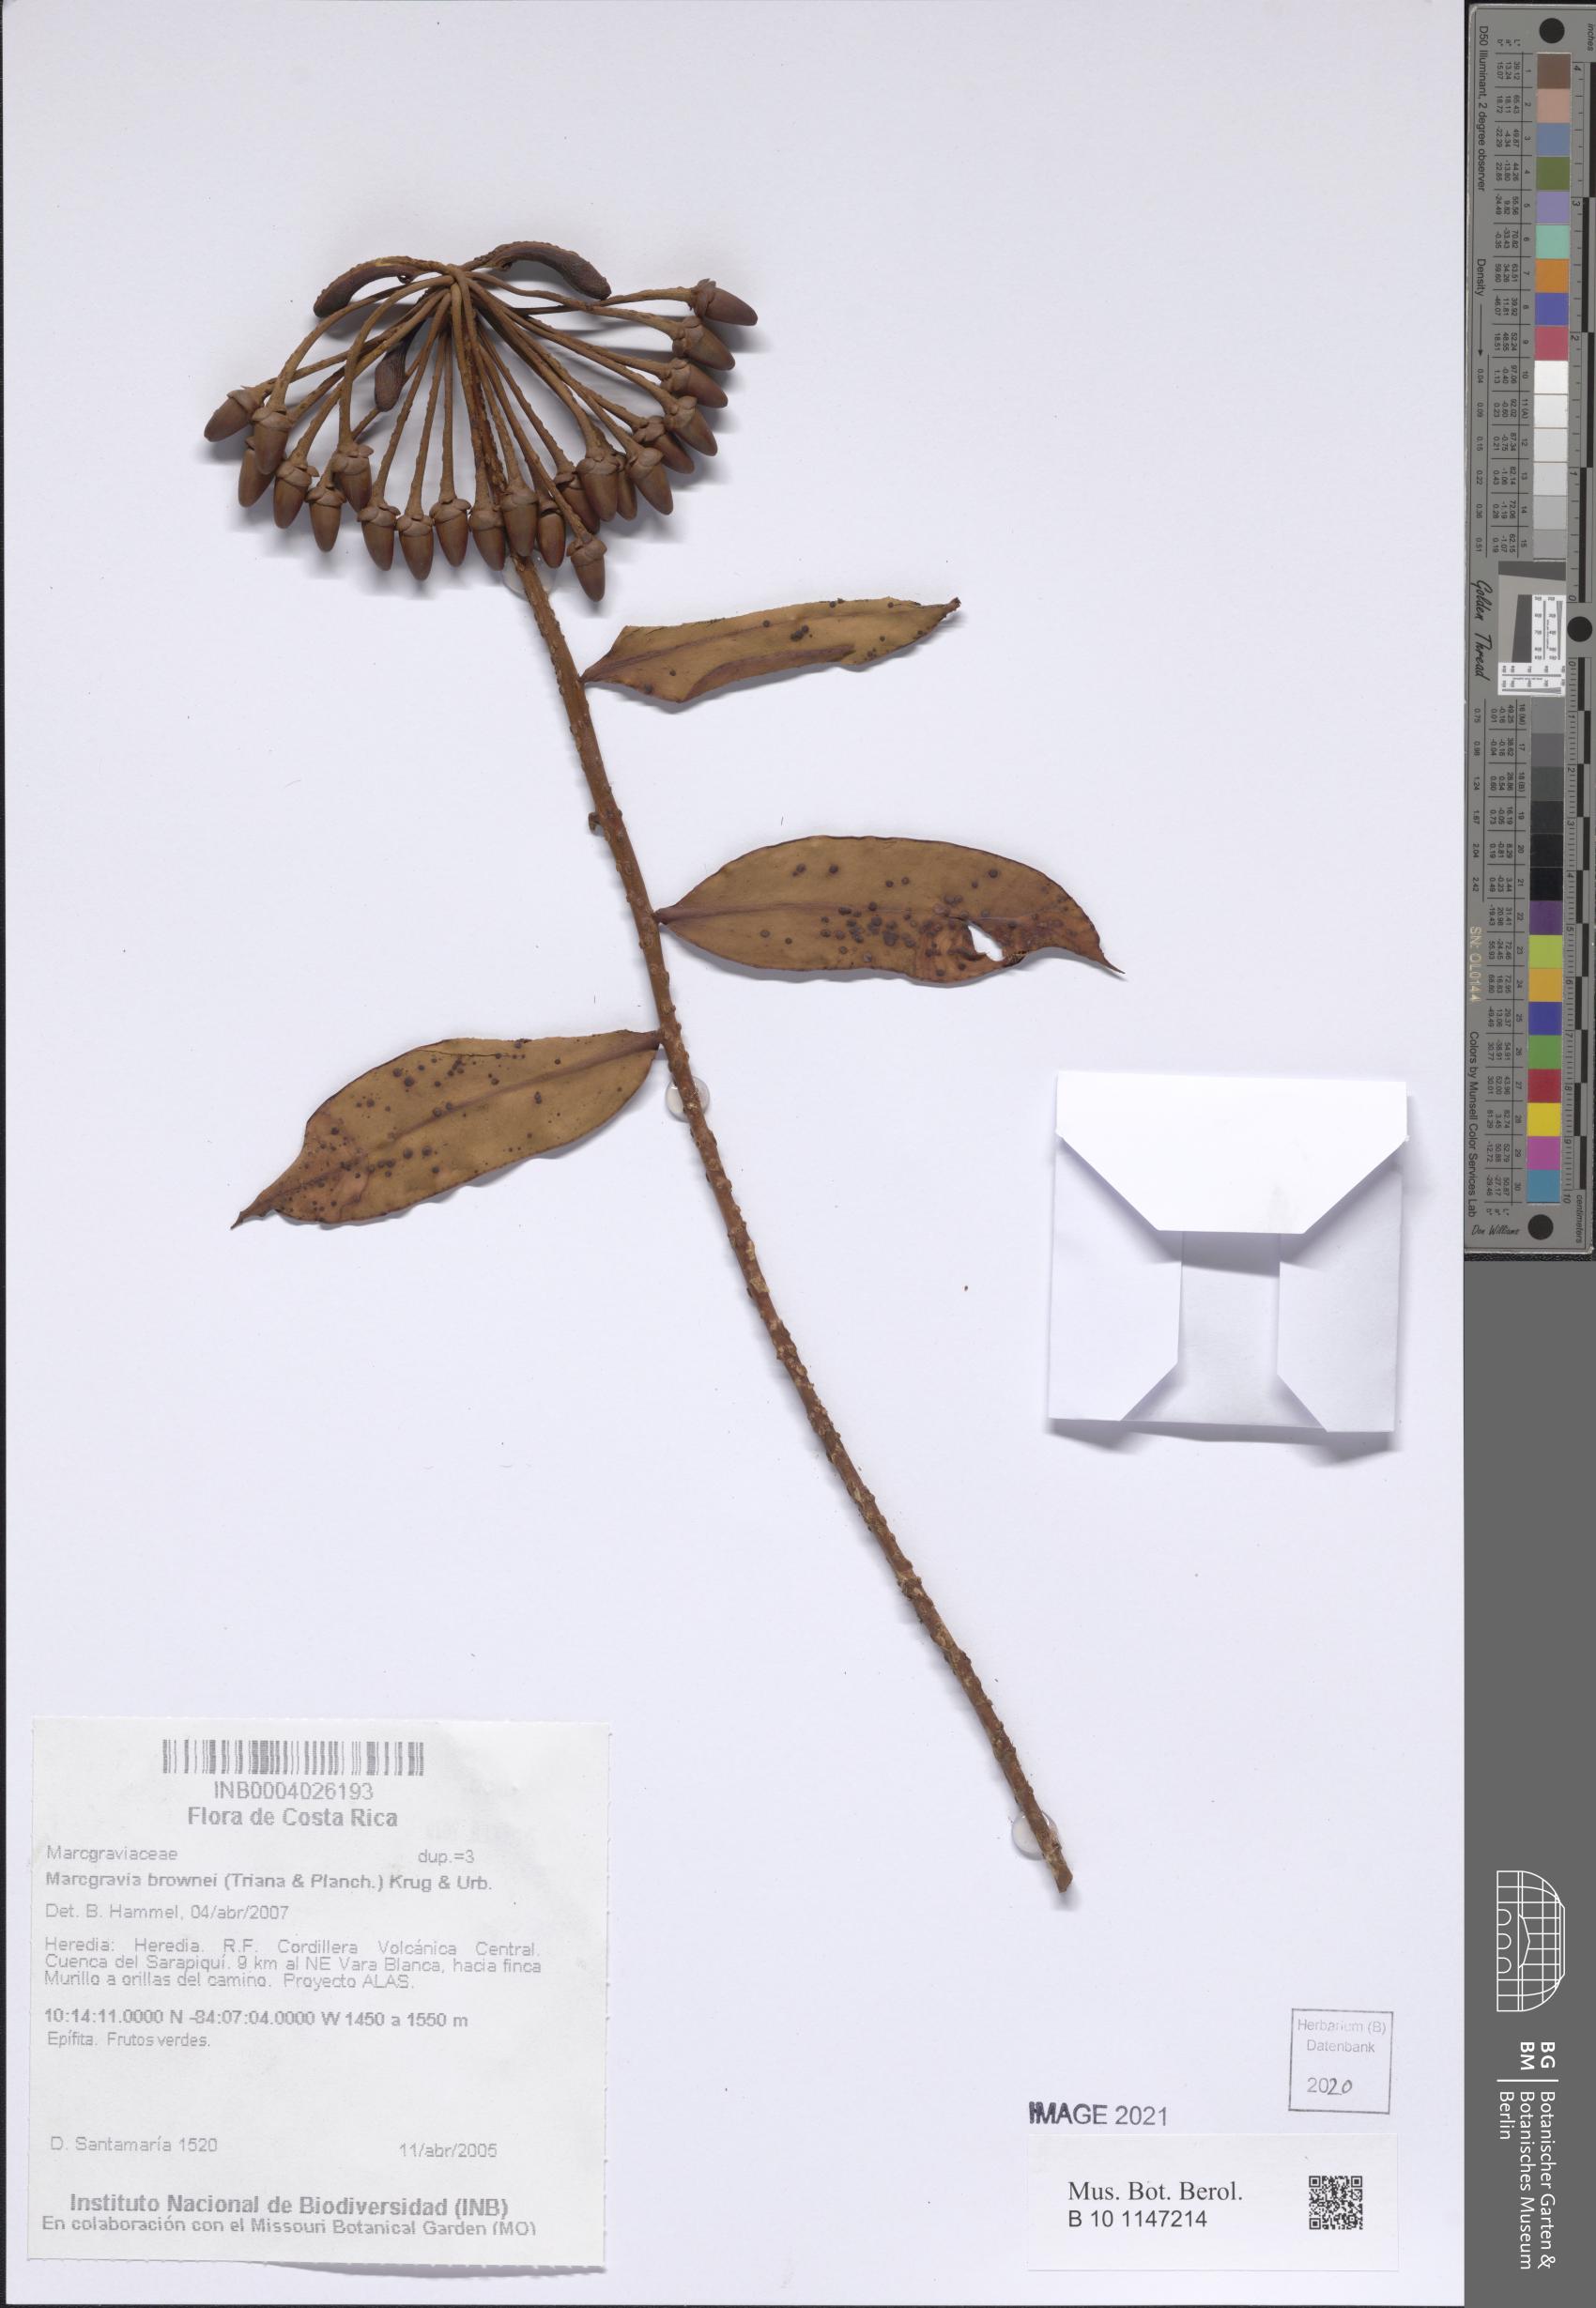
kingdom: Plantae
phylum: Tracheophyta
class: Magnoliopsida
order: Ericales
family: Marcgraviaceae
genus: Marcgravia
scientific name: Marcgravia brownei
